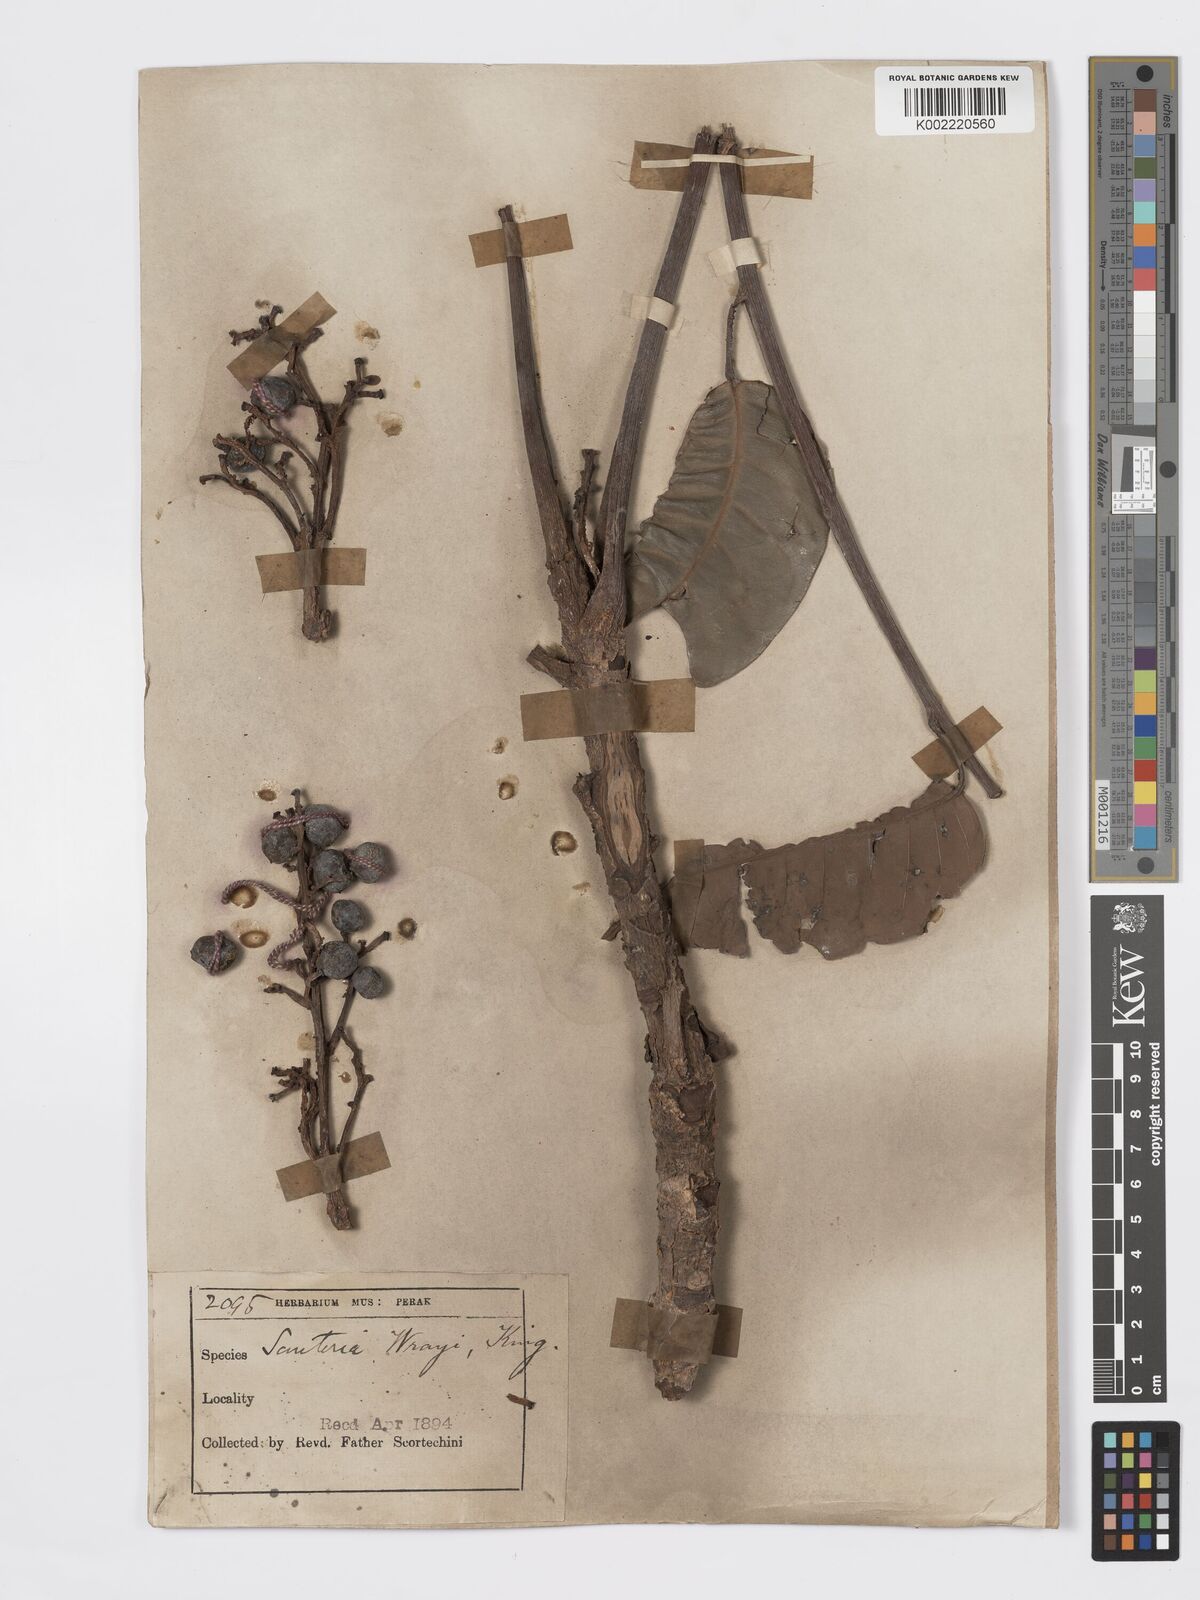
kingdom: Plantae
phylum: Tracheophyta
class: Magnoliopsida
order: Sapindales
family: Burseraceae
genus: Santiria
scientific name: Santiria conferta
